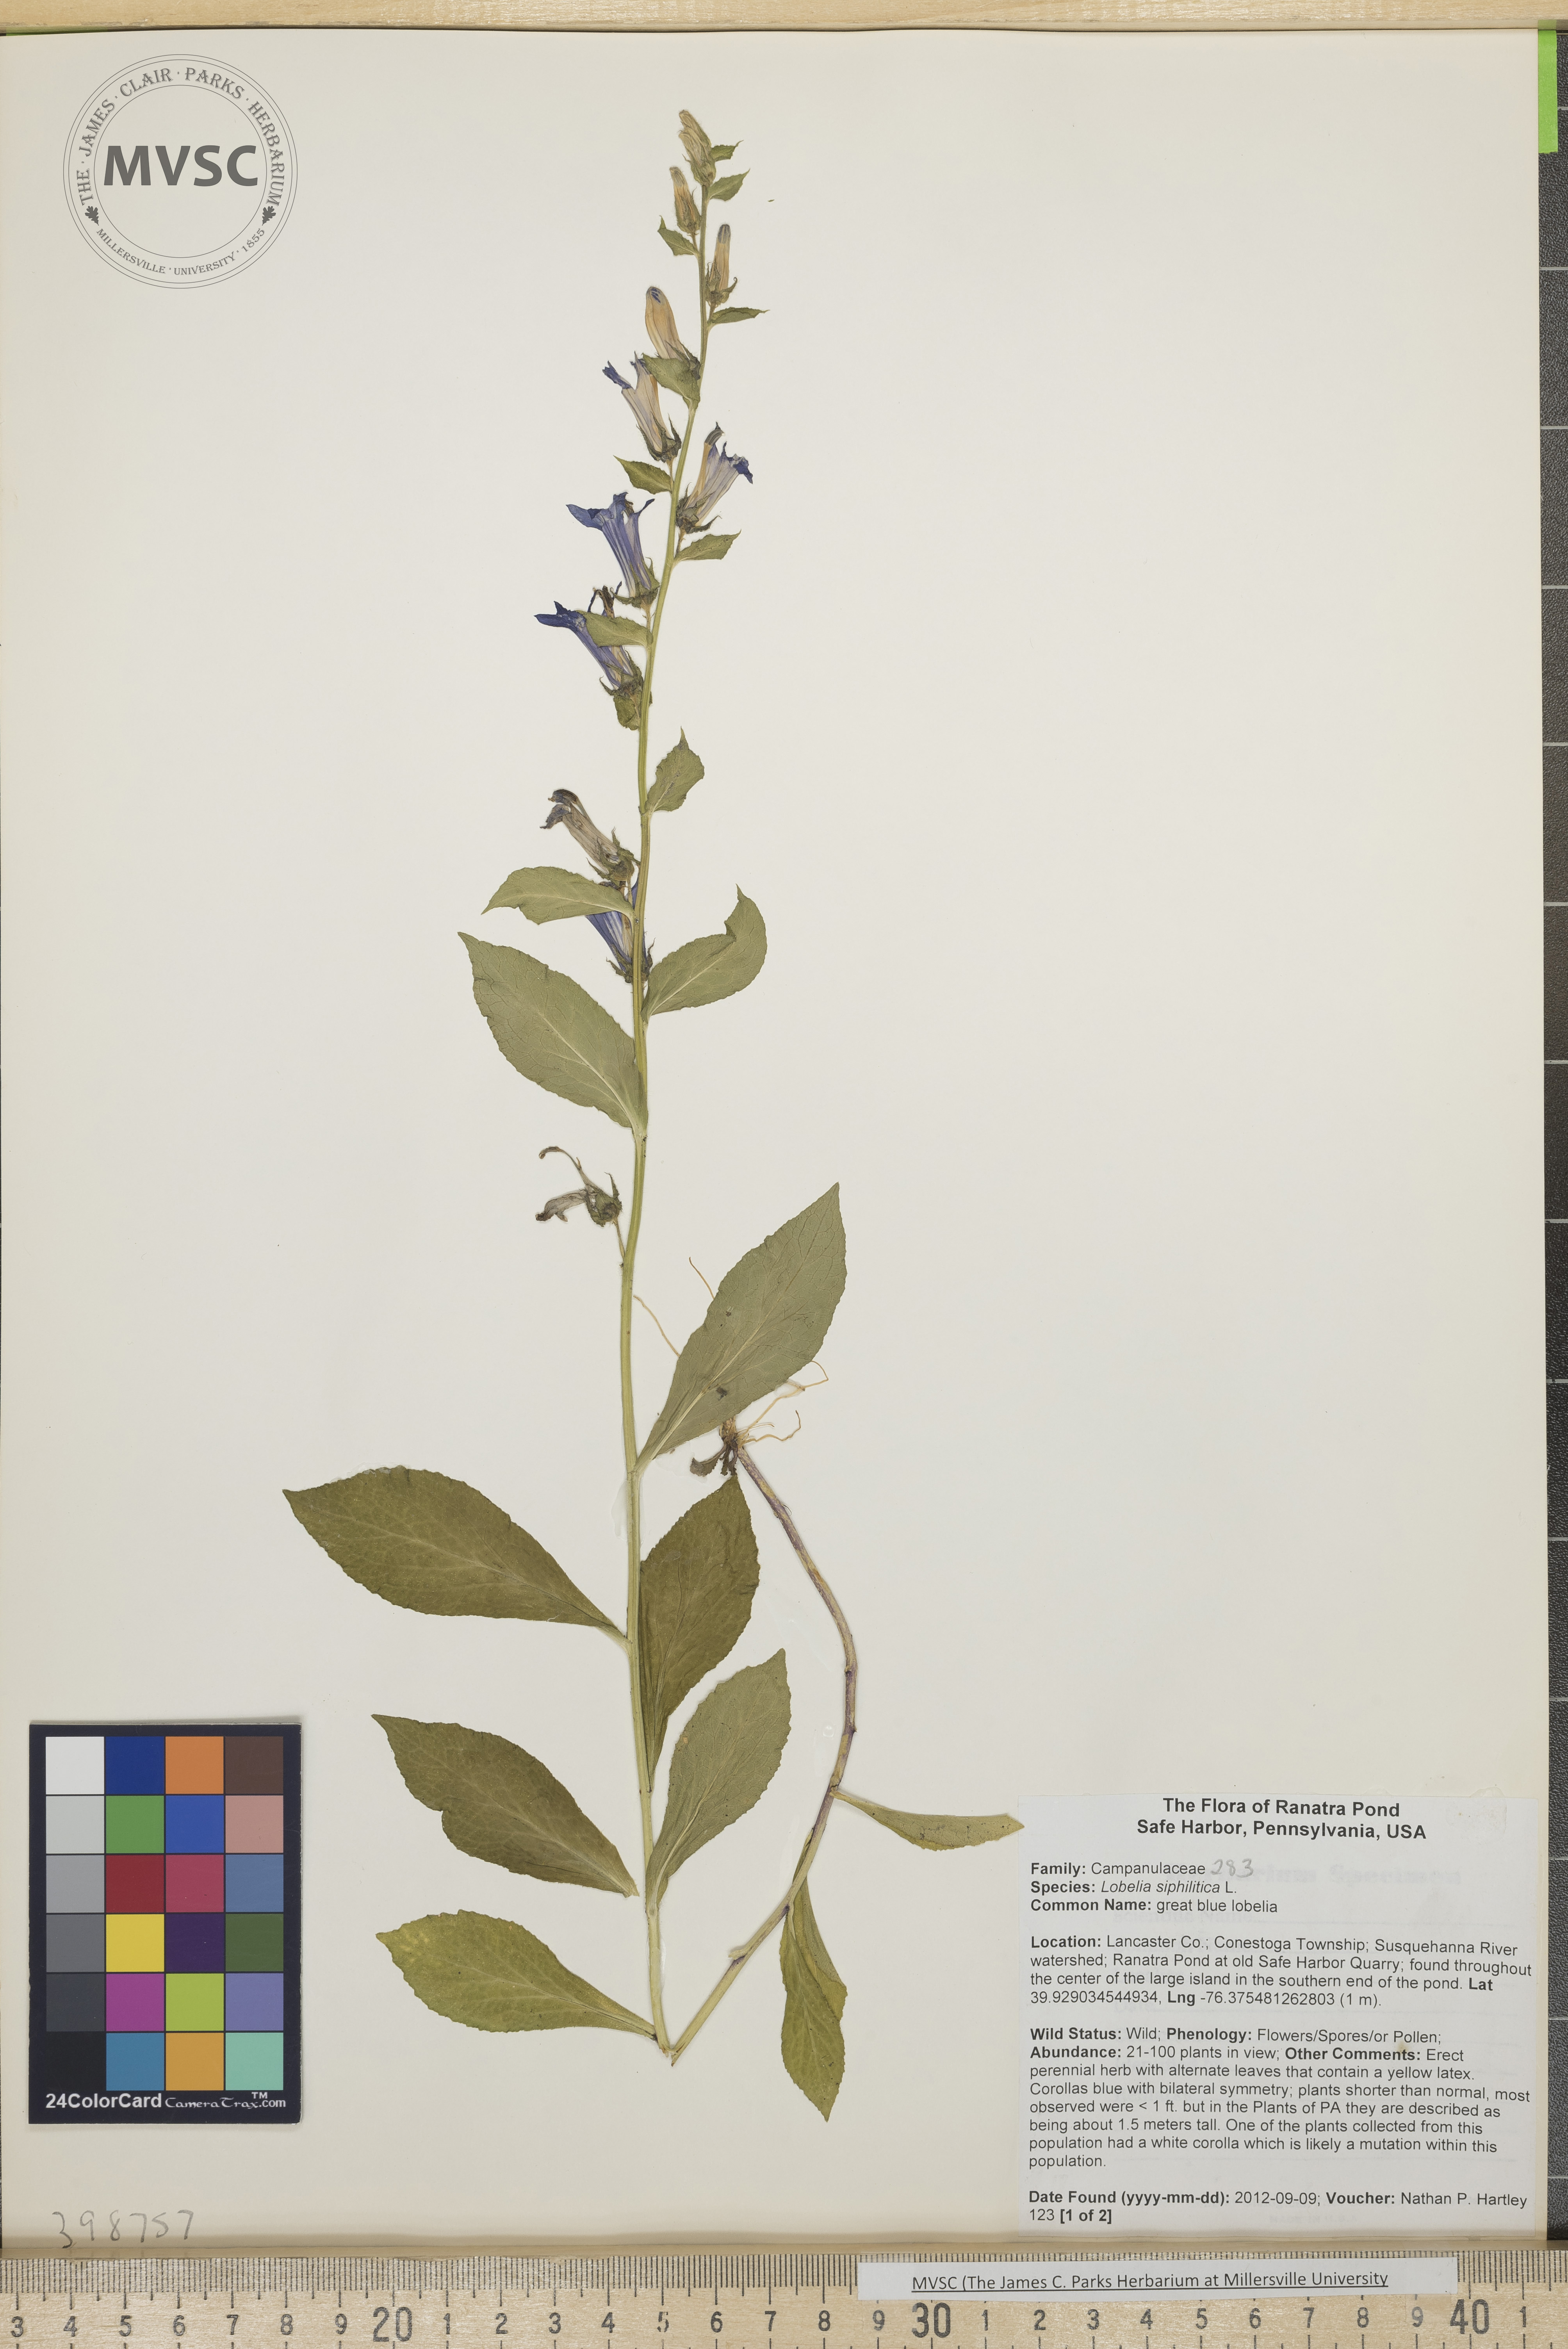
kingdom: Plantae
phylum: Tracheophyta
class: Magnoliopsida
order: Asterales
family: Campanulaceae
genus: Lobelia
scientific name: Lobelia siphilitica
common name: Great blue lobelia
